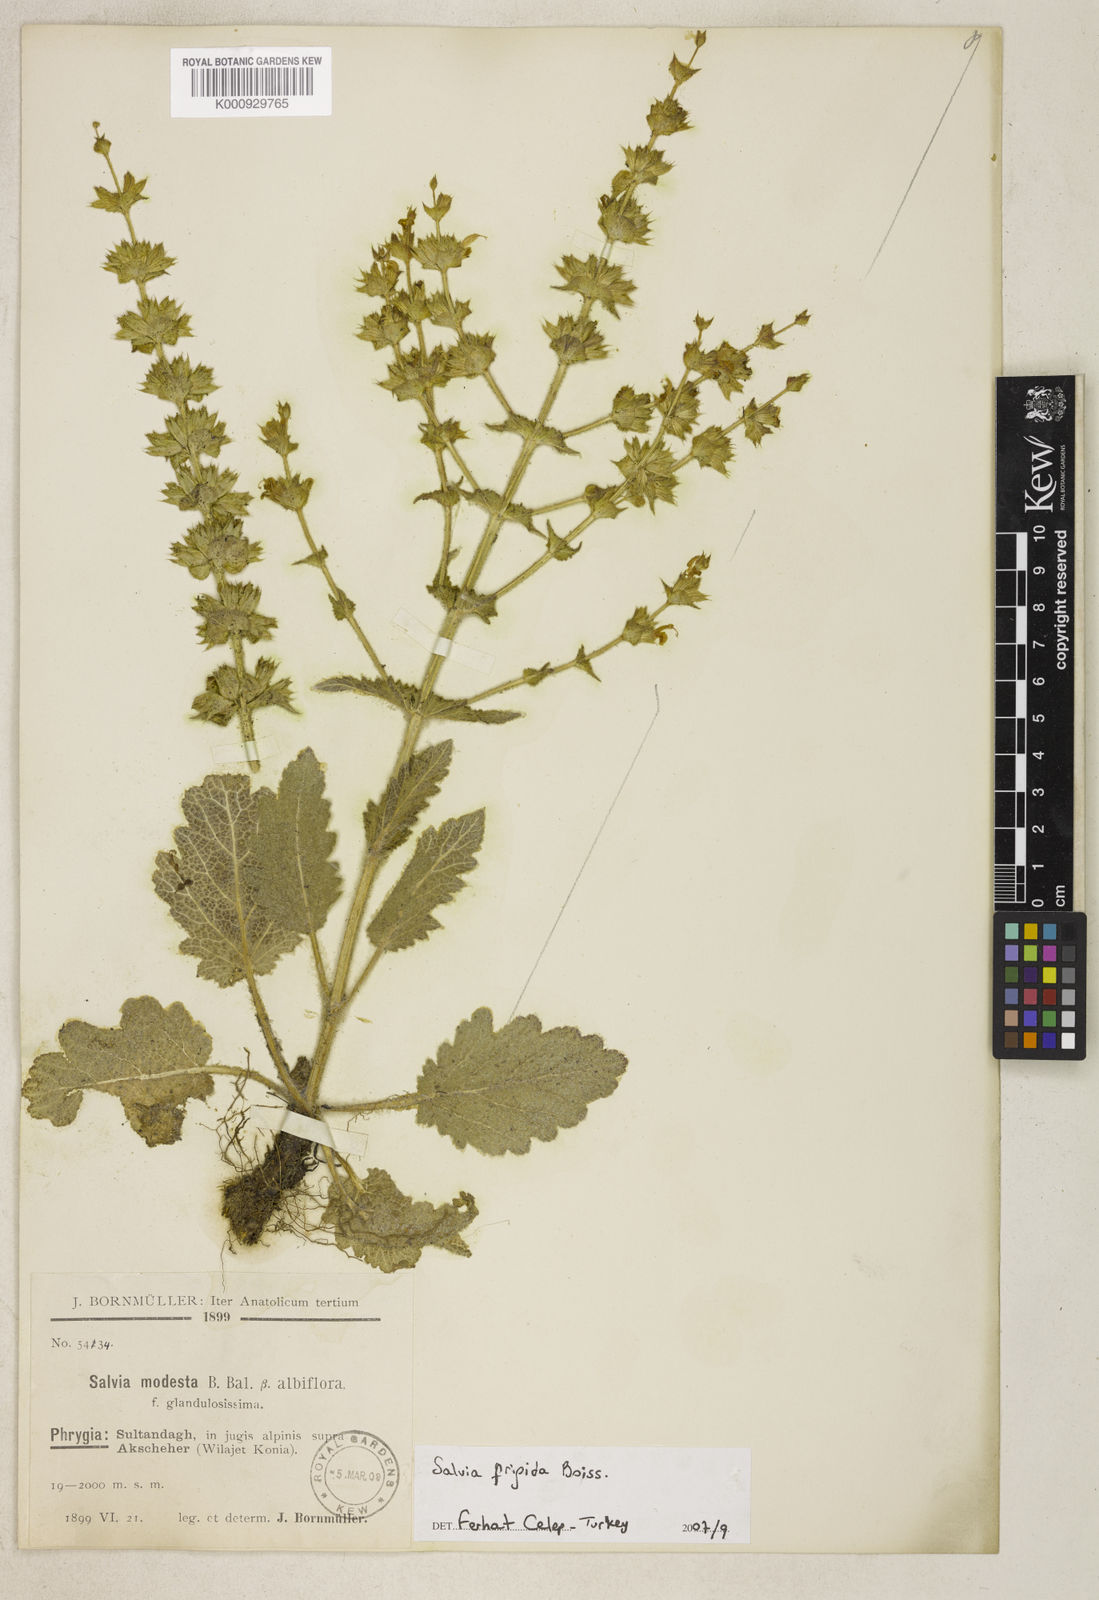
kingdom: Plantae
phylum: Tracheophyta
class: Magnoliopsida
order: Lamiales
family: Lamiaceae
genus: Salvia
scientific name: Salvia modesta
